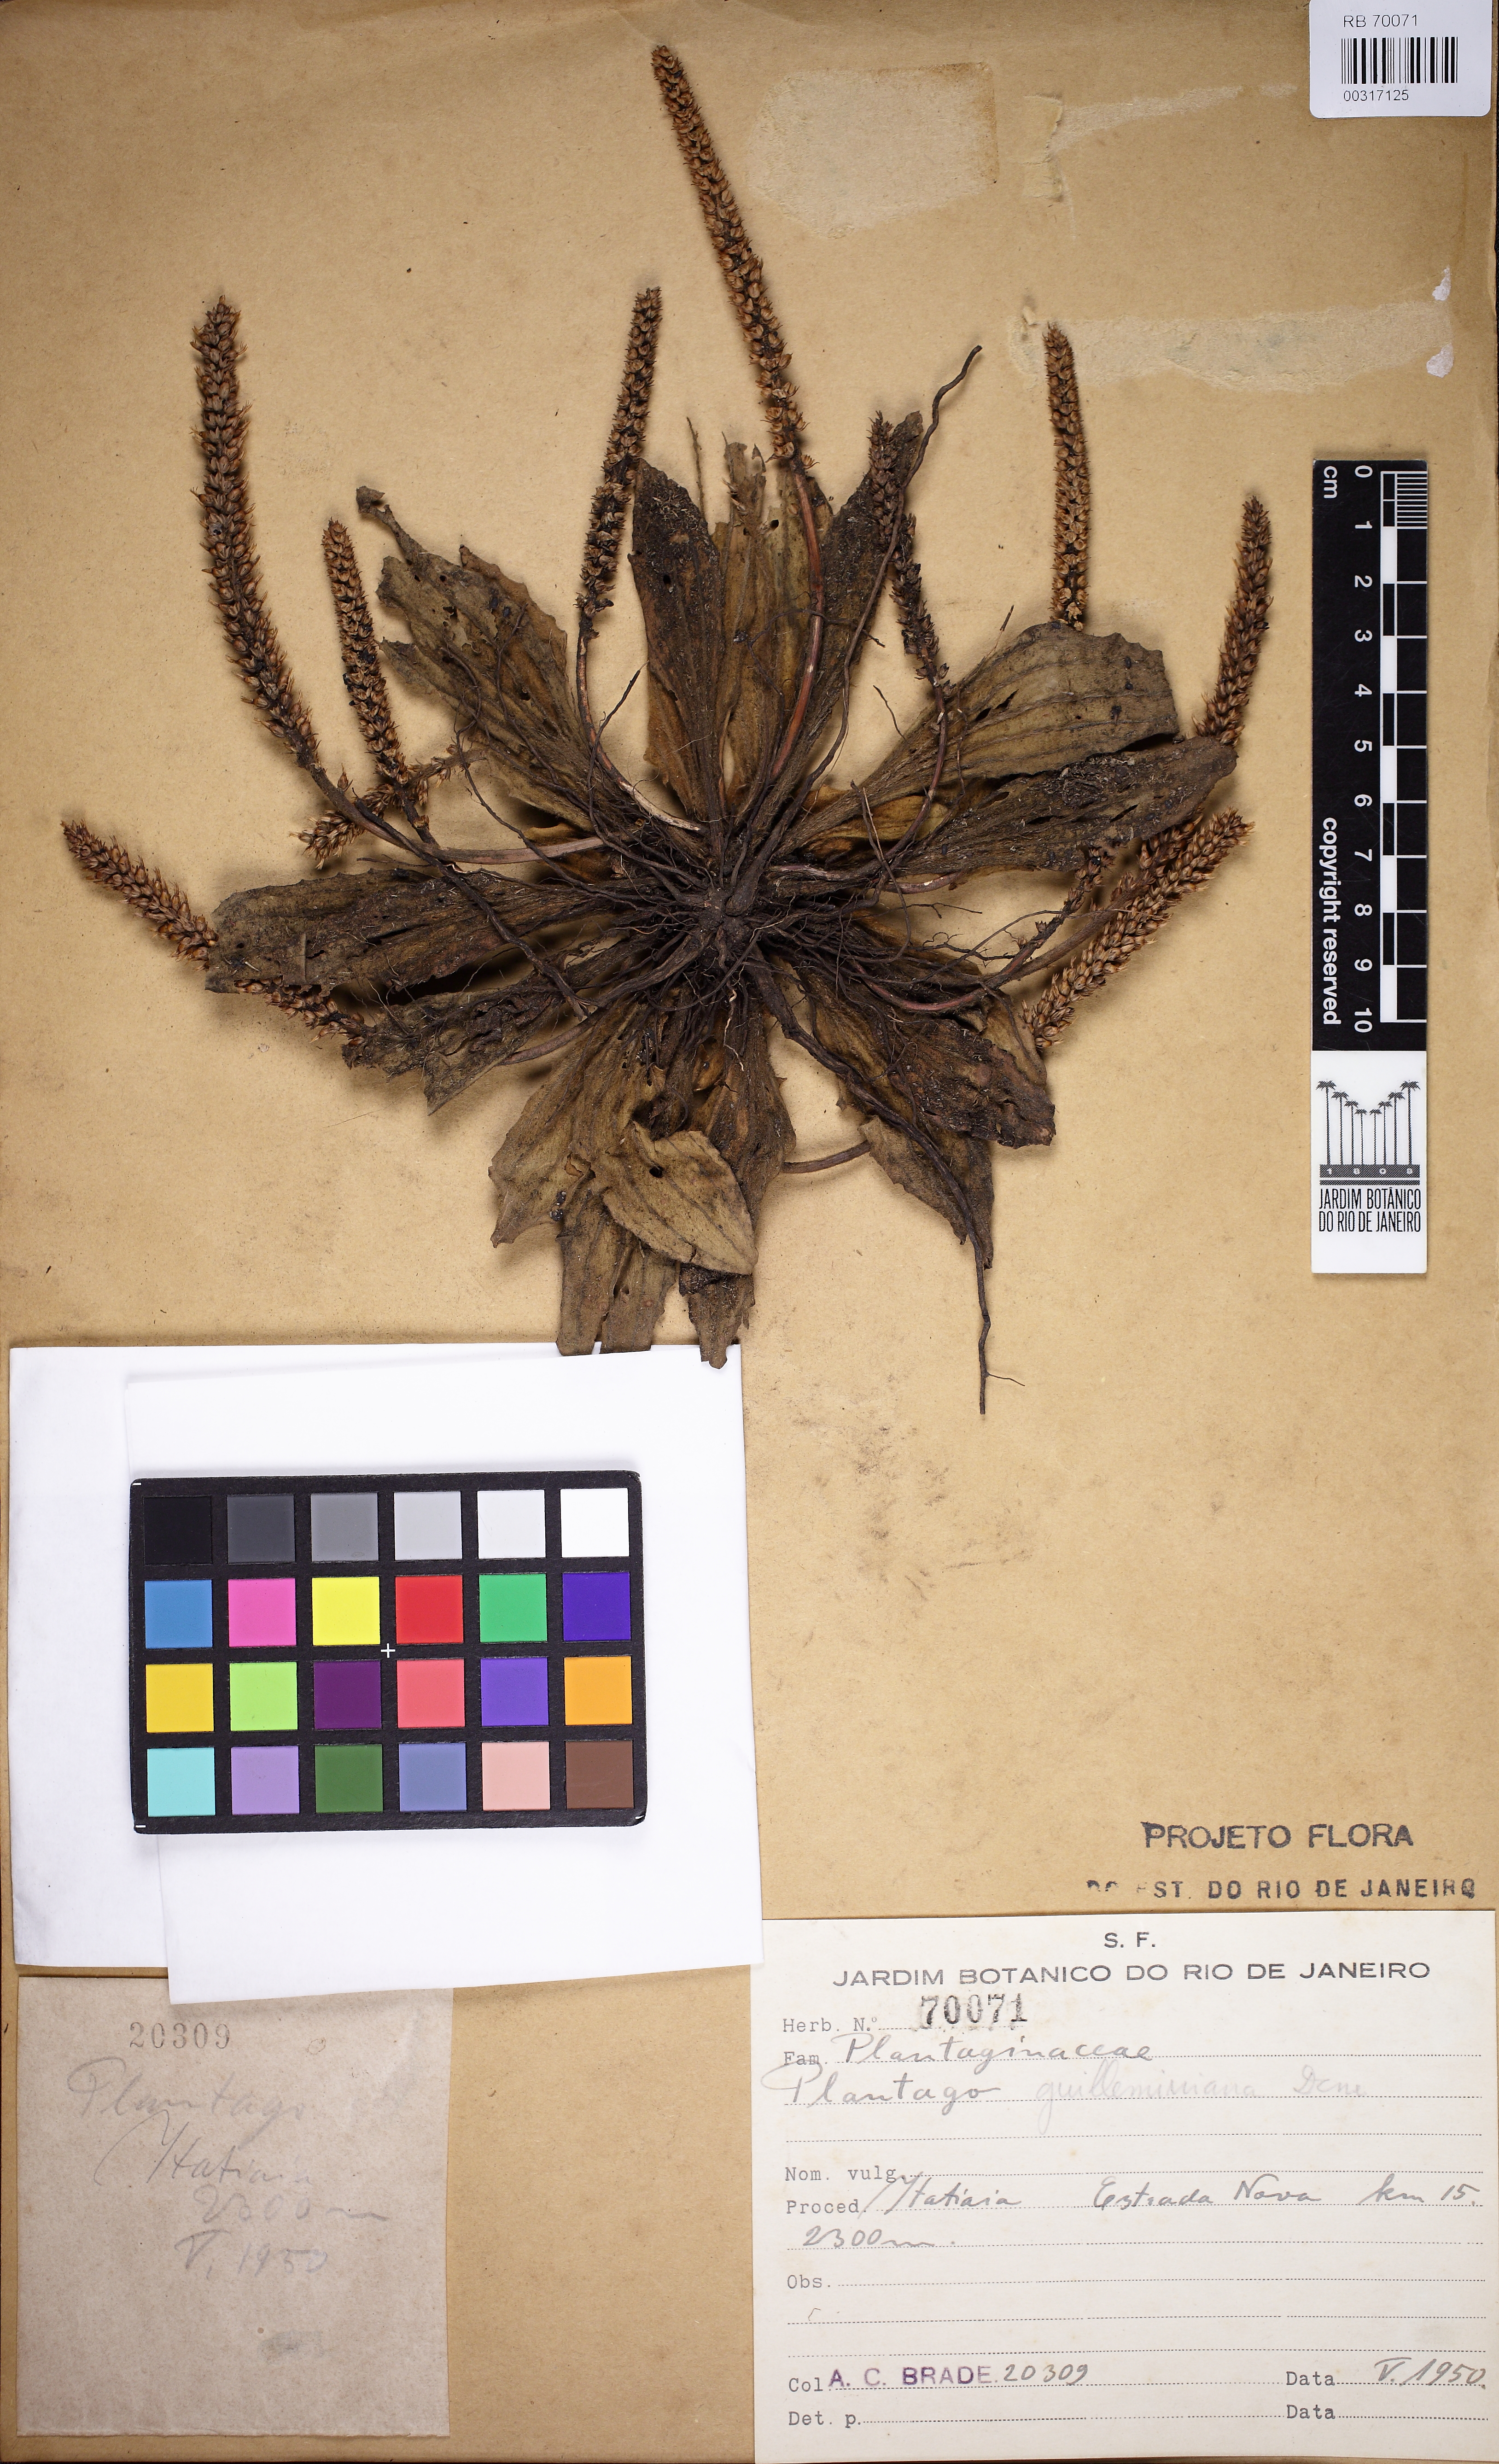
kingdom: Plantae
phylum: Tracheophyta
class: Magnoliopsida
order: Lamiales
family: Plantaginaceae
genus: Plantago
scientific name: Plantago guilleminiana
